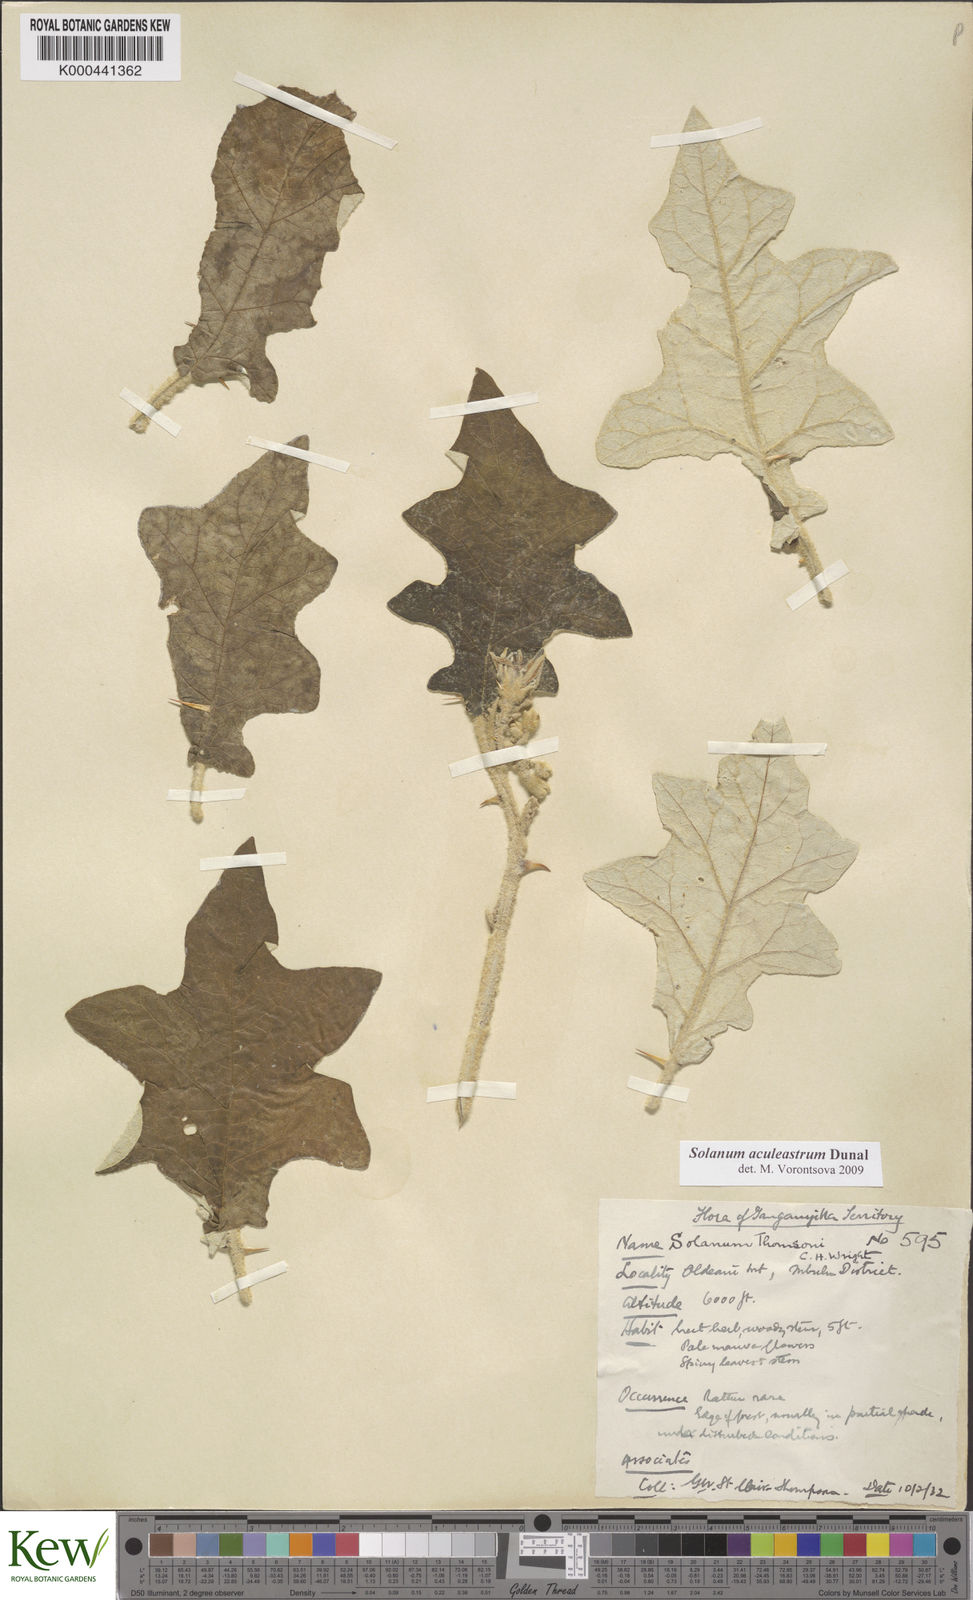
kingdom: Plantae
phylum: Tracheophyta
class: Magnoliopsida
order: Solanales
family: Solanaceae
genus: Solanum
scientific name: Solanum aculeastrum
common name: Goat bitter-apple
